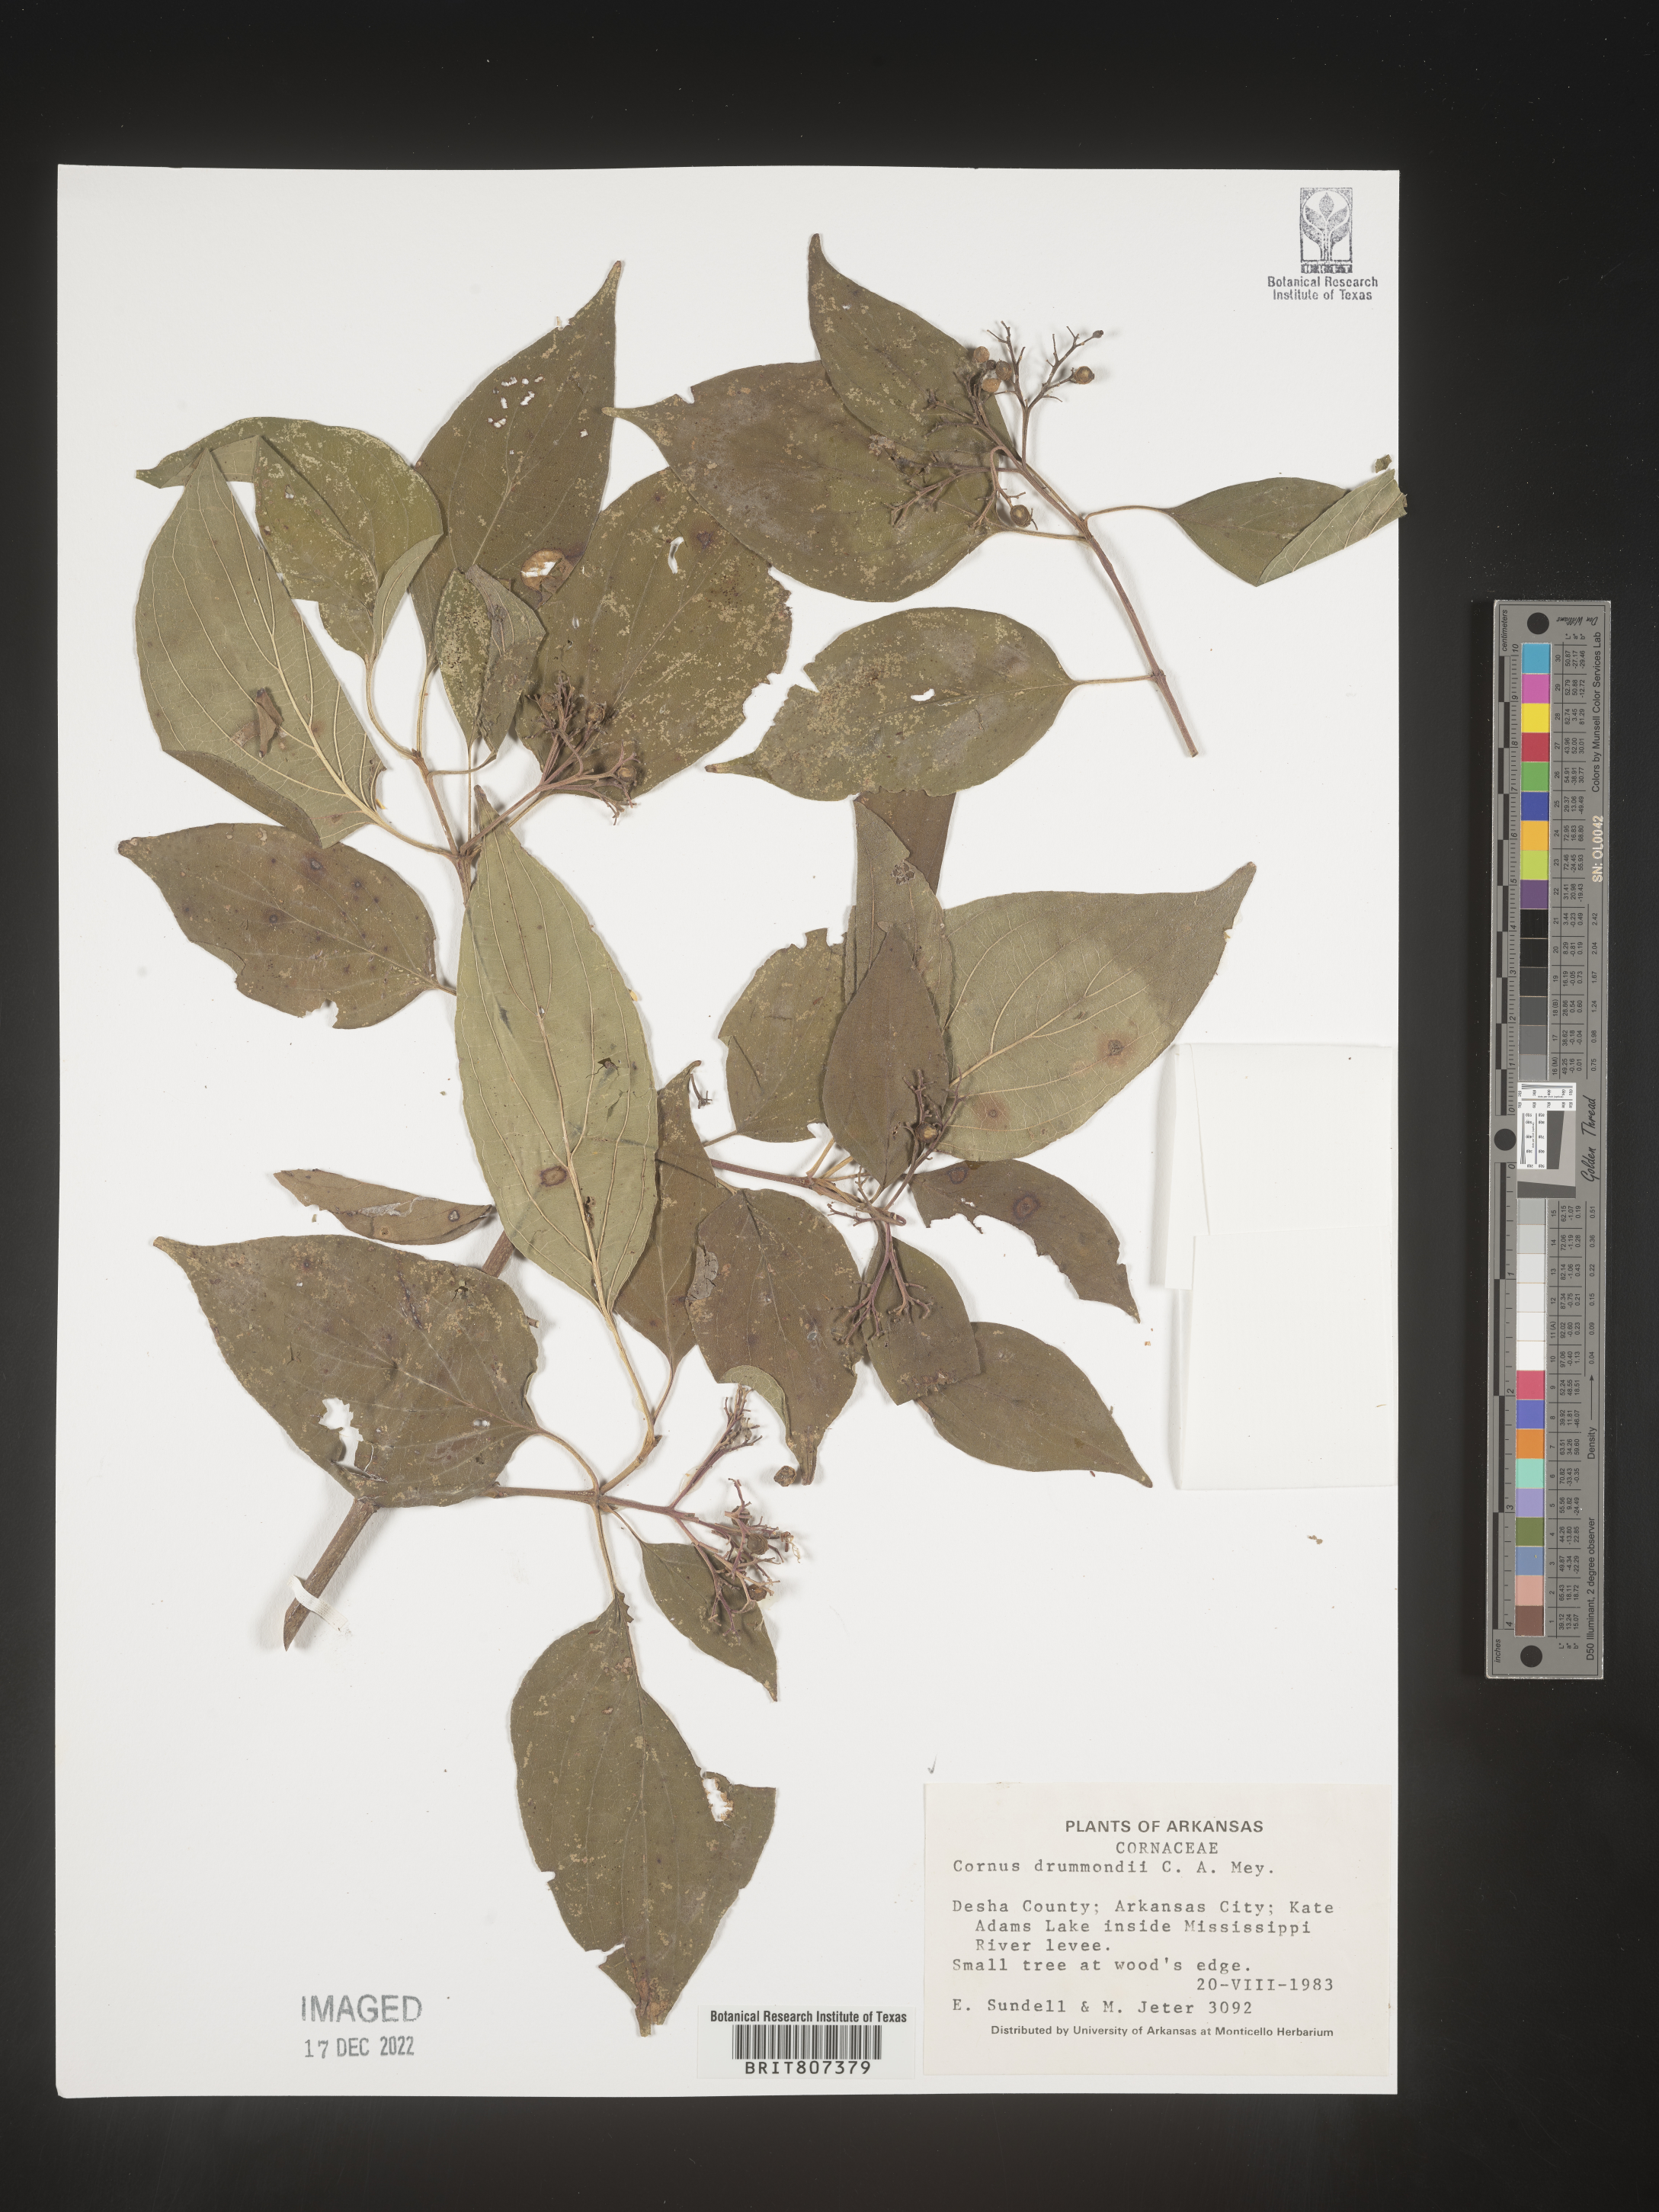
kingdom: Plantae
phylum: Tracheophyta
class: Magnoliopsida
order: Cornales
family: Cornaceae
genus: Cornus
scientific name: Cornus drummondii
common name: Rough-leaf dogwood
